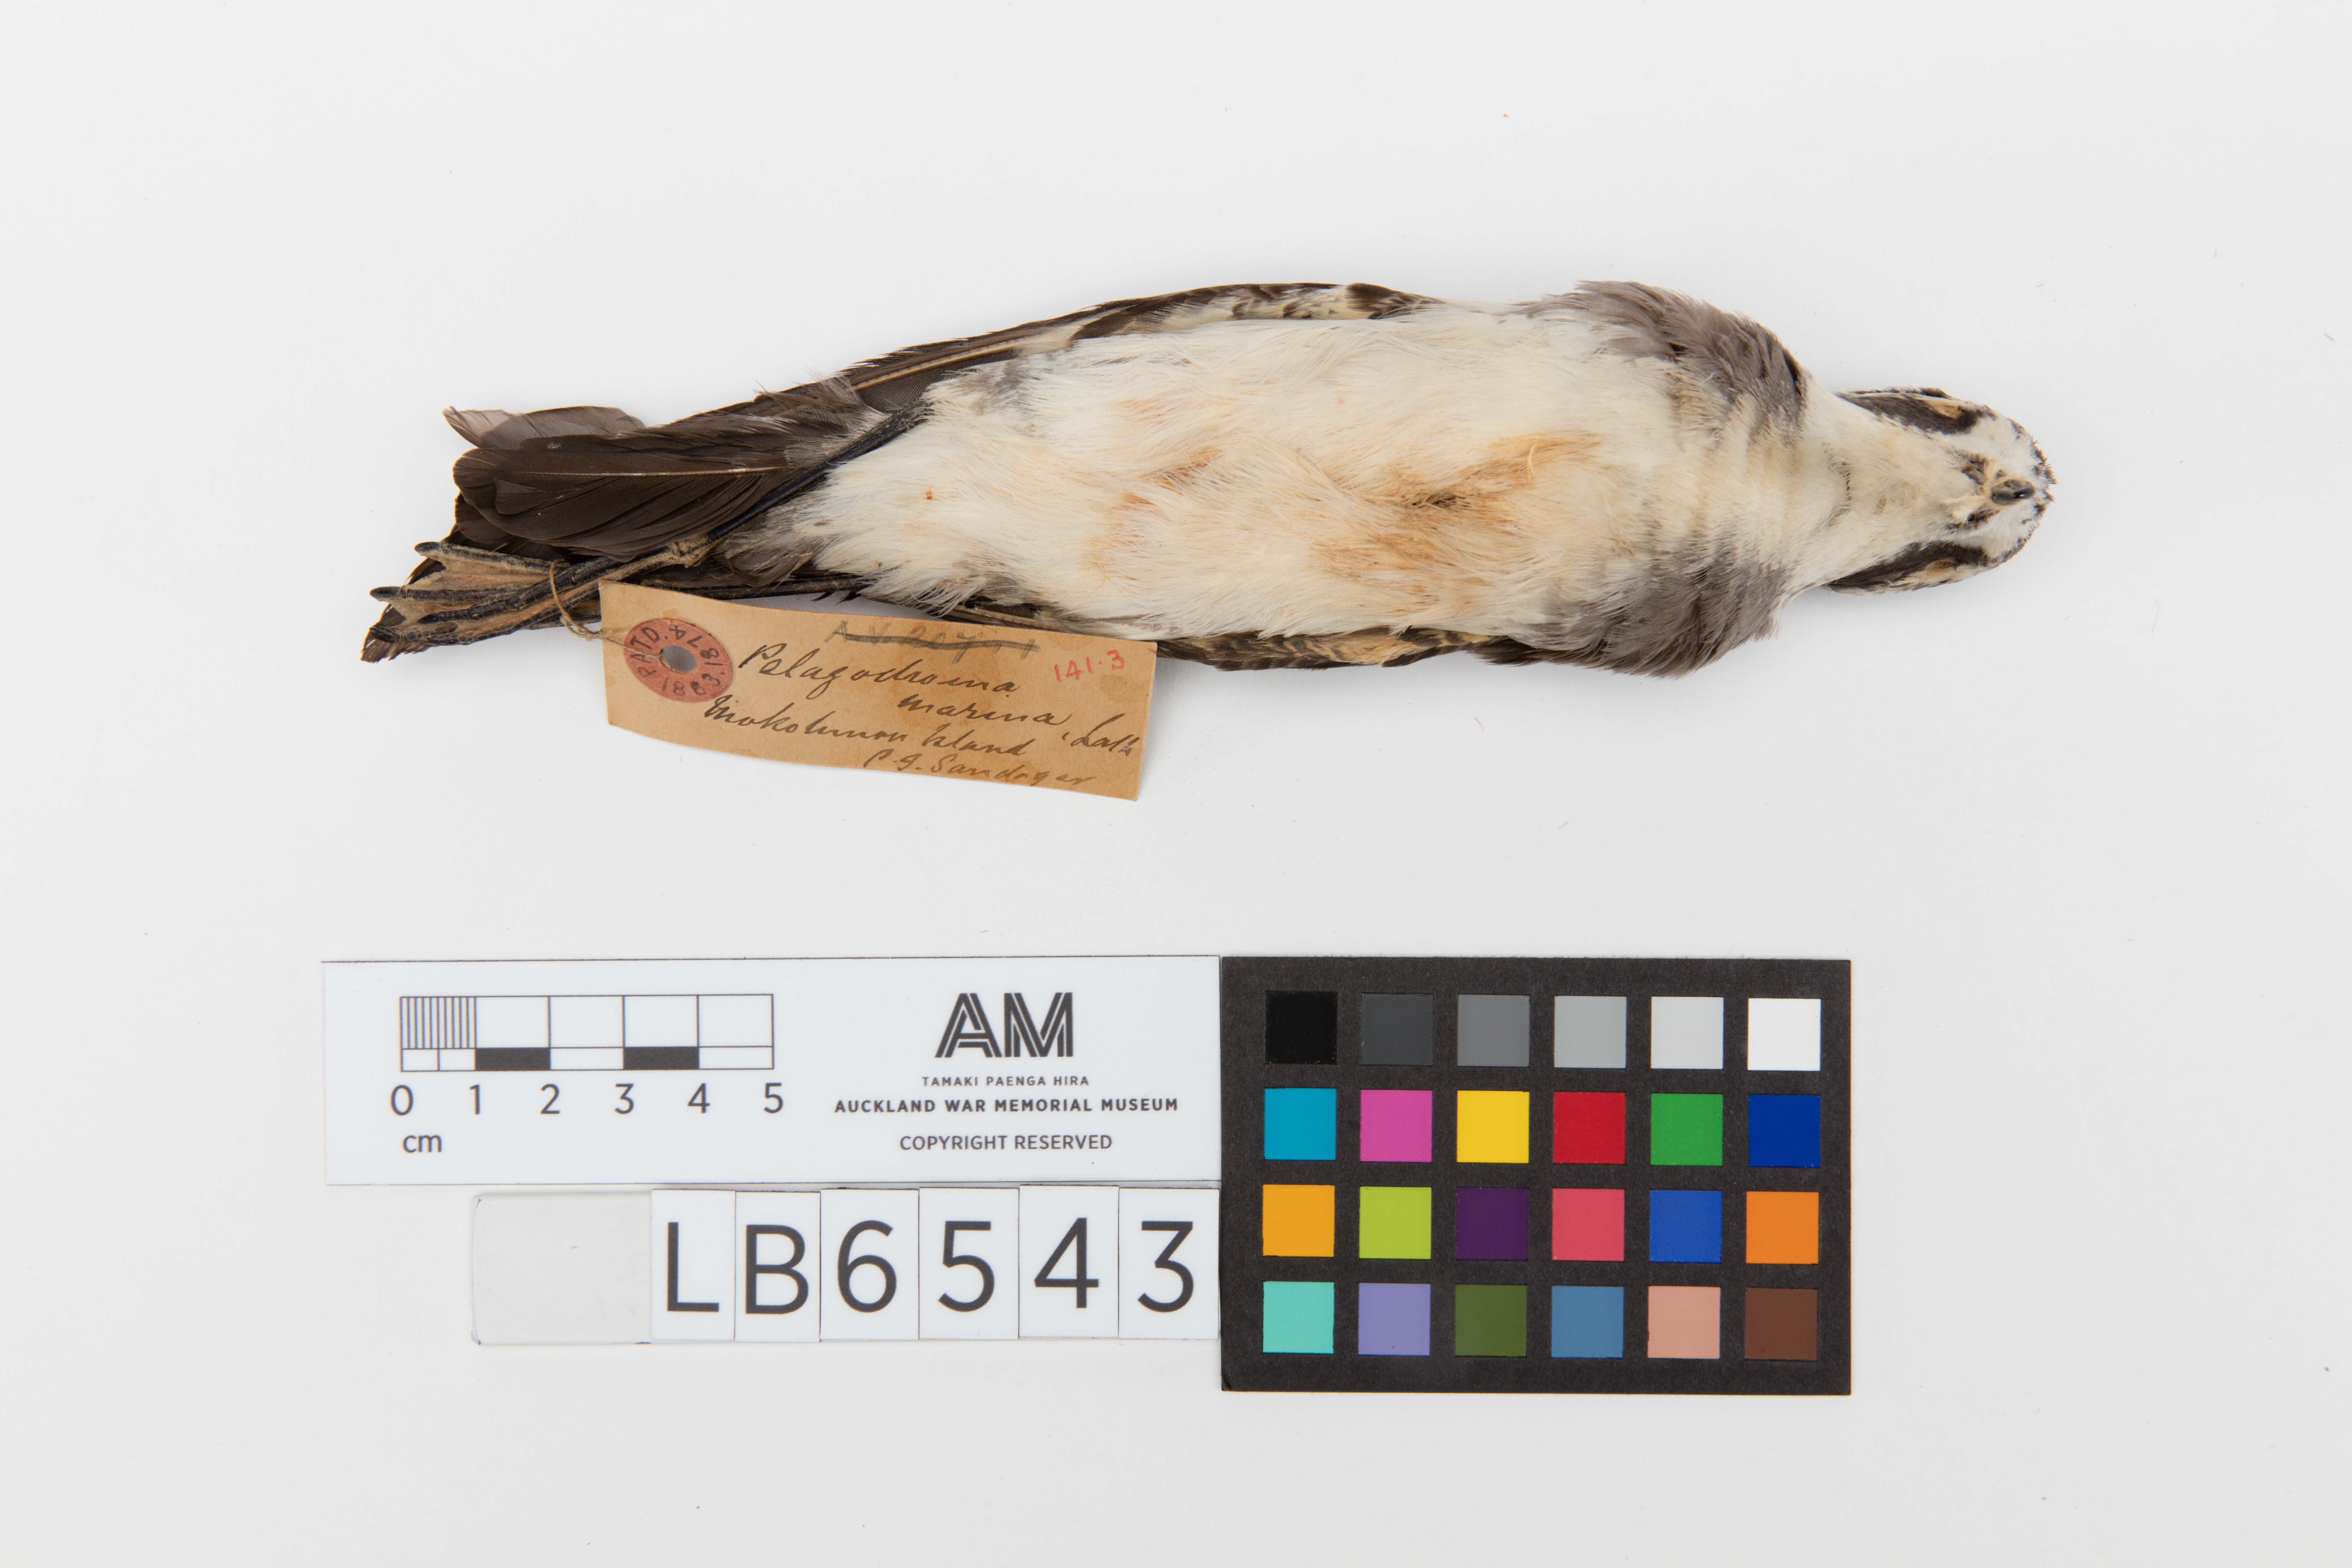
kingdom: Animalia
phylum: Chordata
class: Aves
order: Procellariiformes
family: Hydrobatidae
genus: Pelagodroma
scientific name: Pelagodroma marina
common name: White-faced storm-petrel
